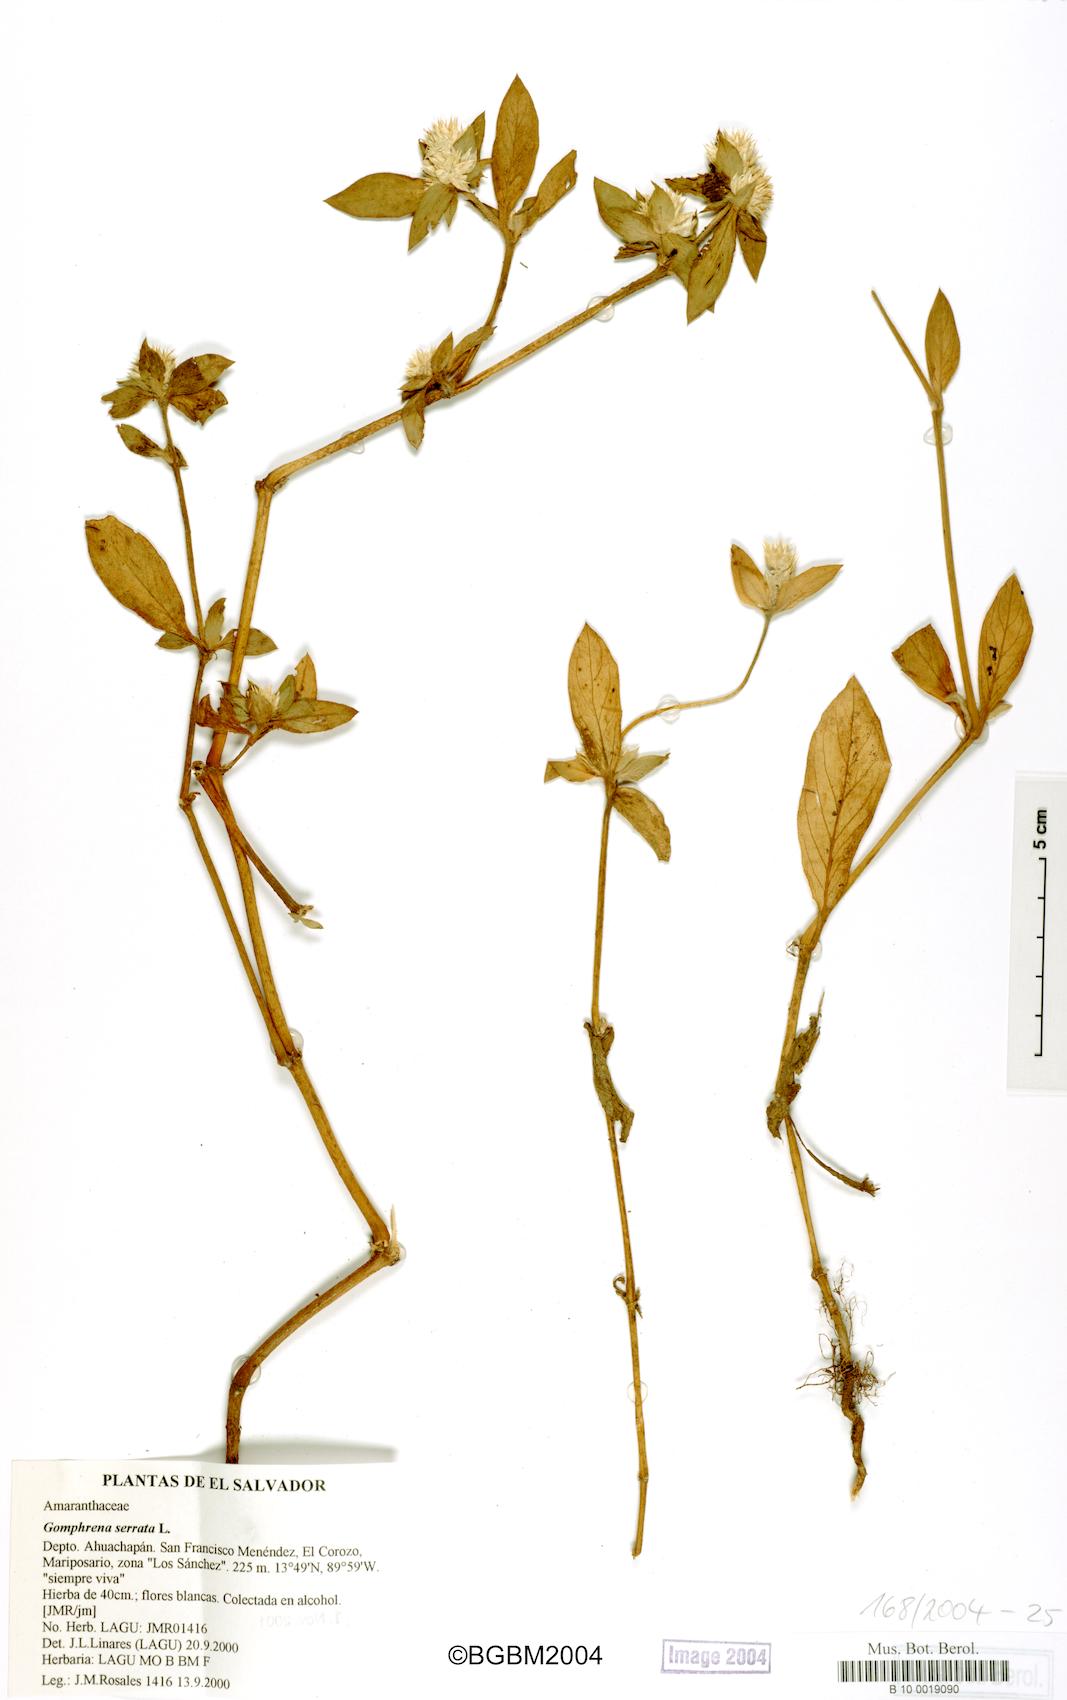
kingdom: Plantae
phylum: Tracheophyta
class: Magnoliopsida
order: Caryophyllales
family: Amaranthaceae
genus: Gomphrena
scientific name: Gomphrena serrata
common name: Arrasa con todo
